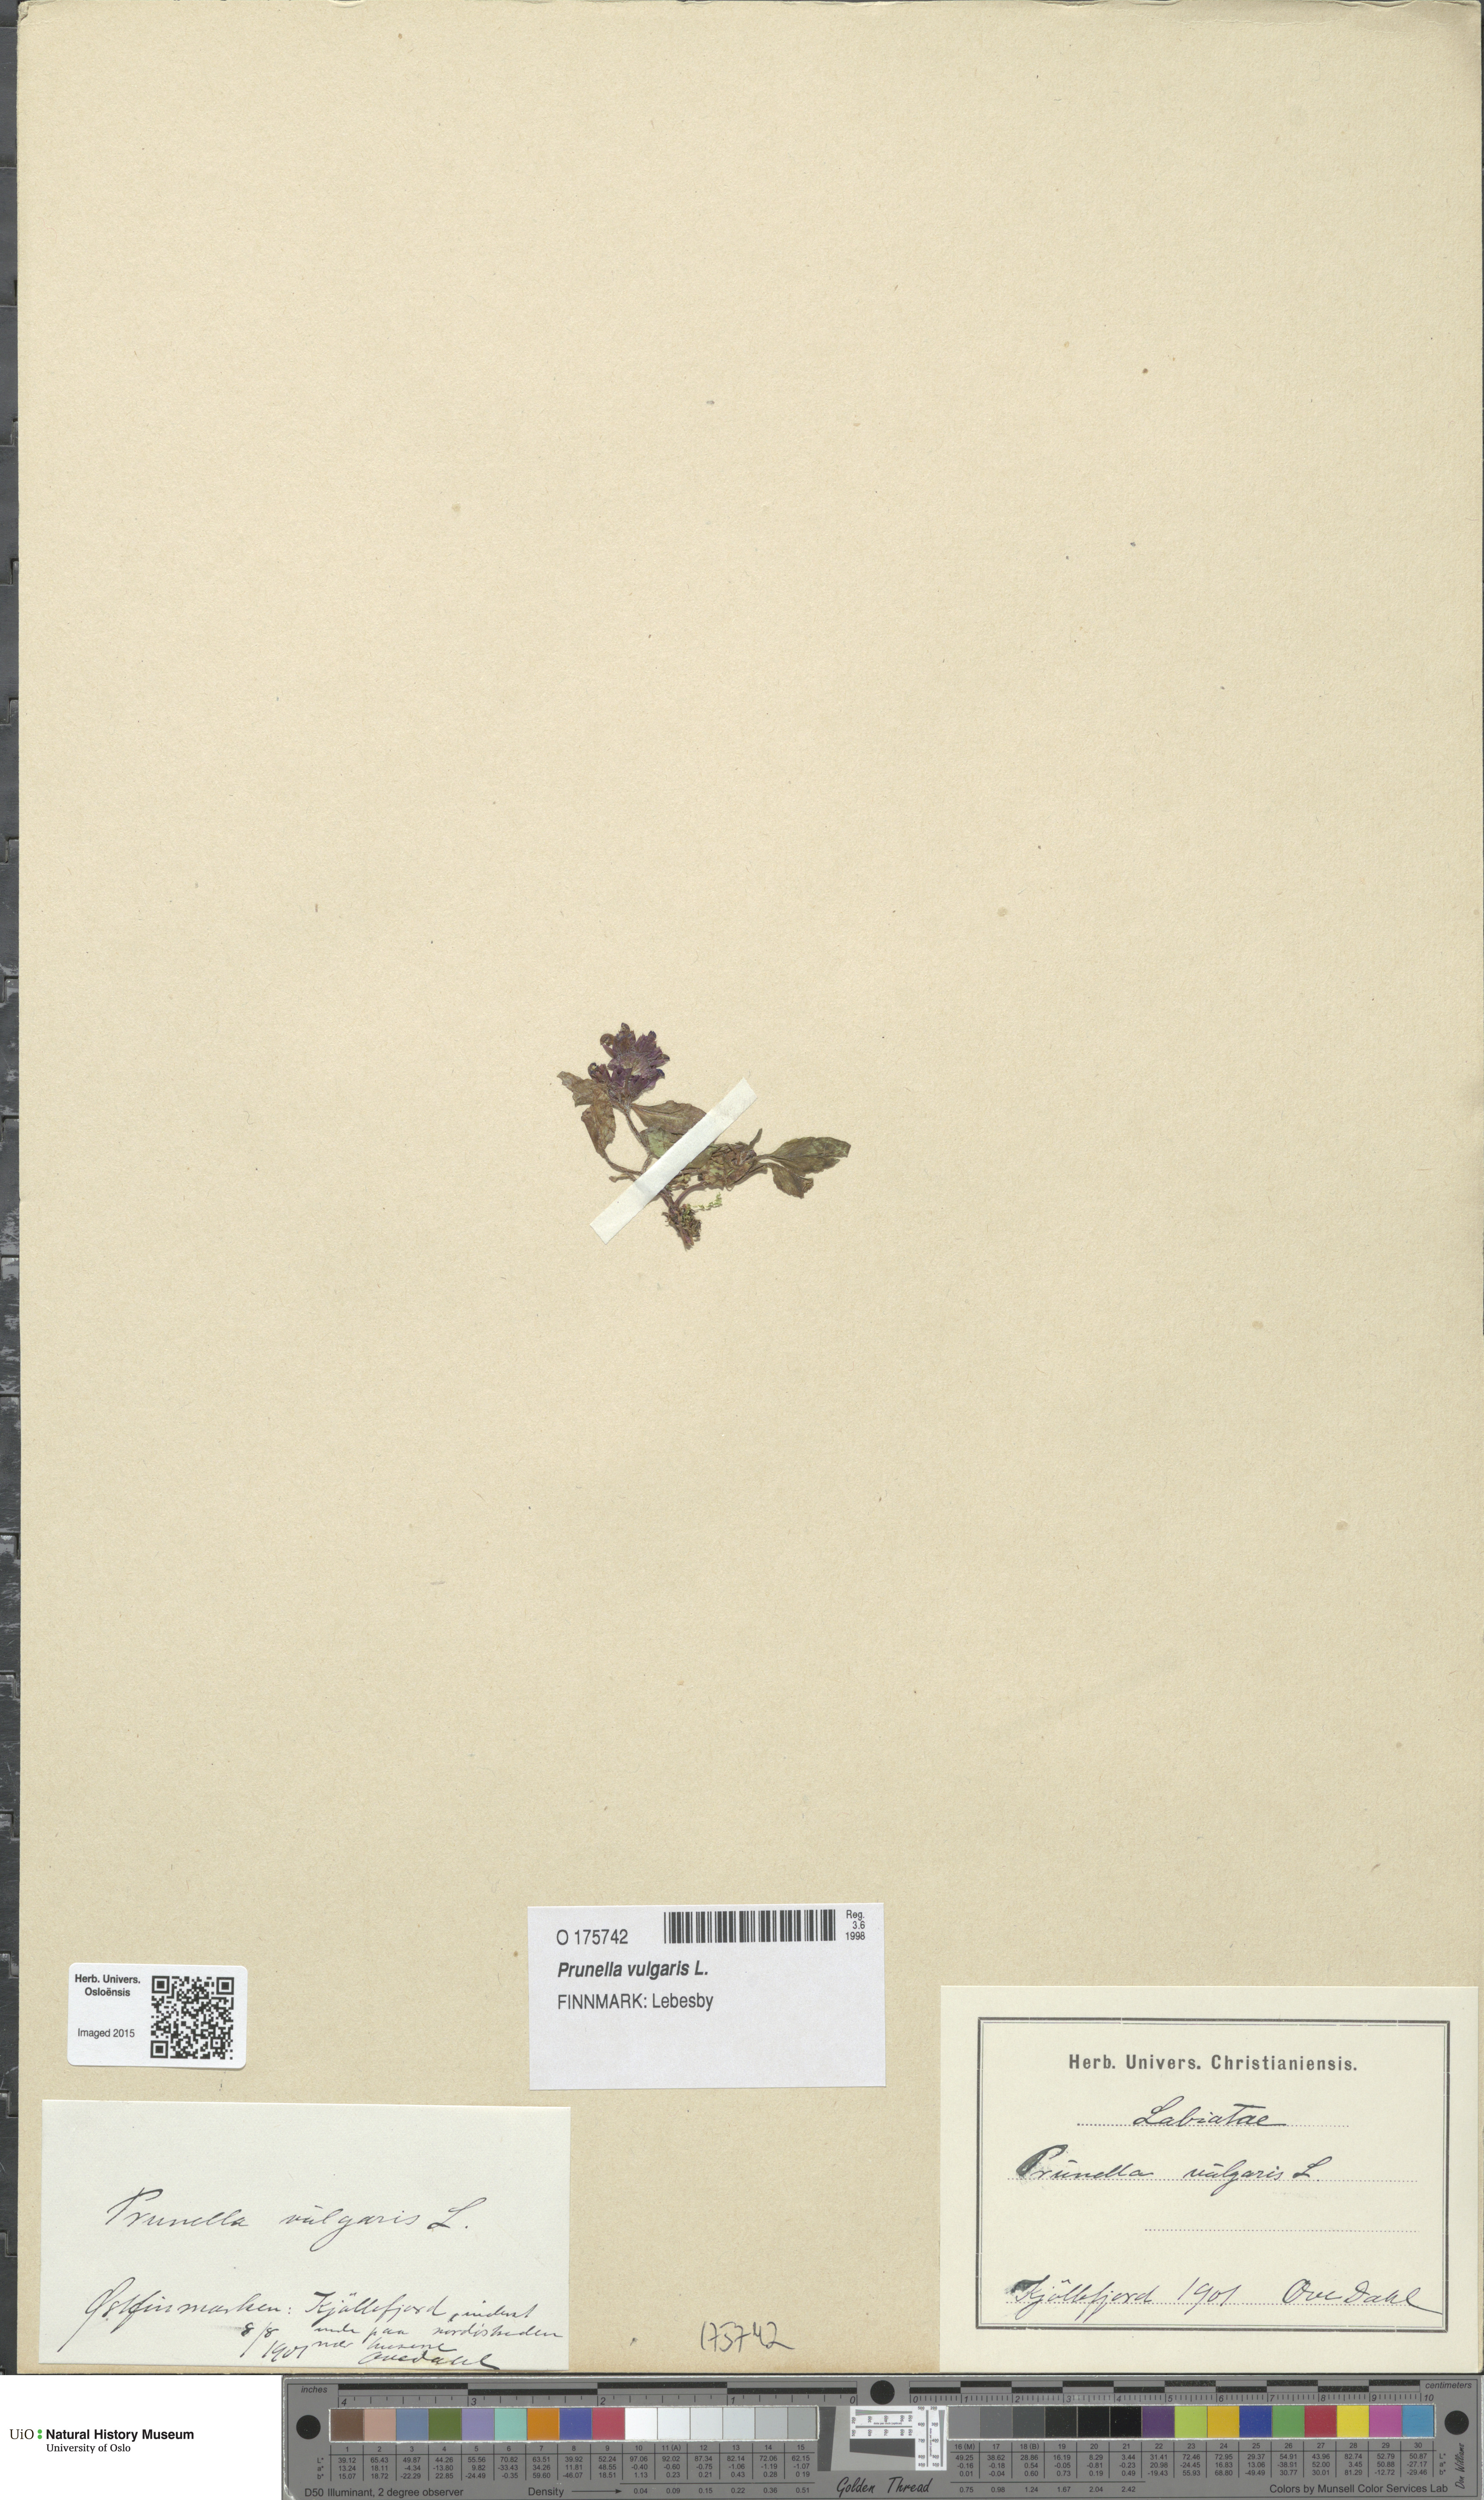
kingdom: Plantae
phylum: Tracheophyta
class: Magnoliopsida
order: Lamiales
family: Lamiaceae
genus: Prunella
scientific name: Prunella vulgaris
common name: Heal-all
